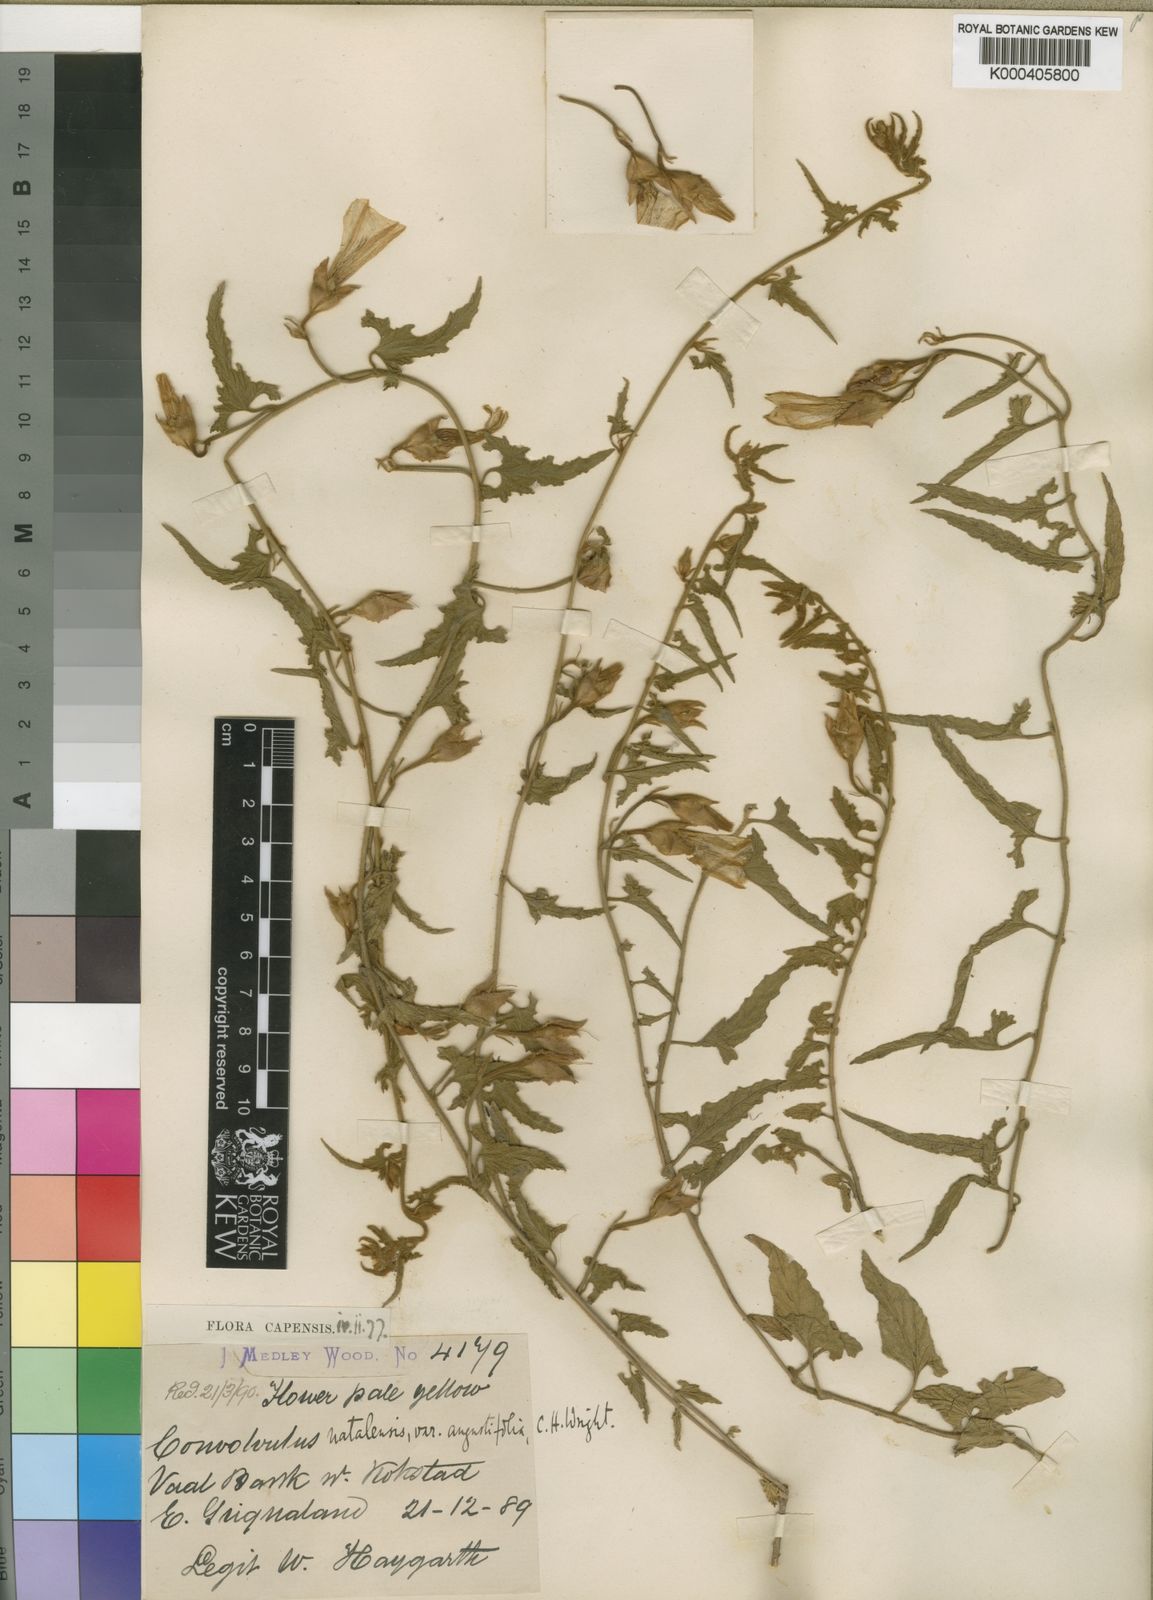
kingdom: Plantae
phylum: Tracheophyta
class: Magnoliopsida
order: Solanales
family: Convolvulaceae
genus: Convolvulus
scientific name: Convolvulus natalensis
